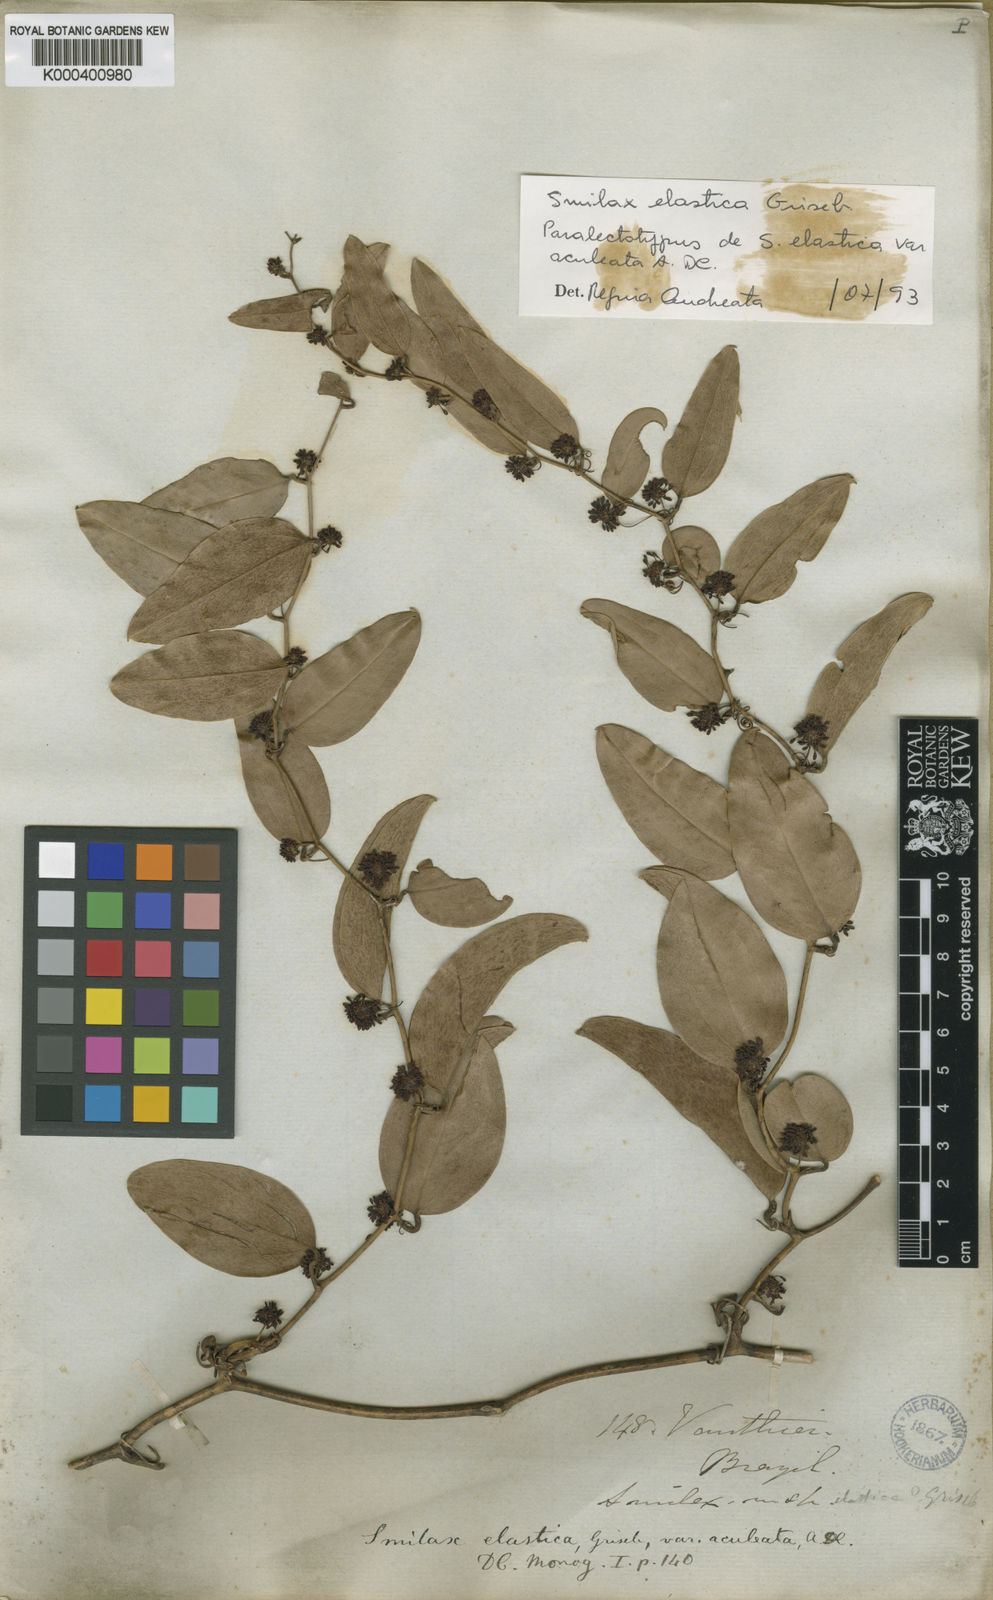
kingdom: Plantae
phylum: Tracheophyta
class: Liliopsida
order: Liliales
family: Smilacaceae
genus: Smilax
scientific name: Smilax elastica
